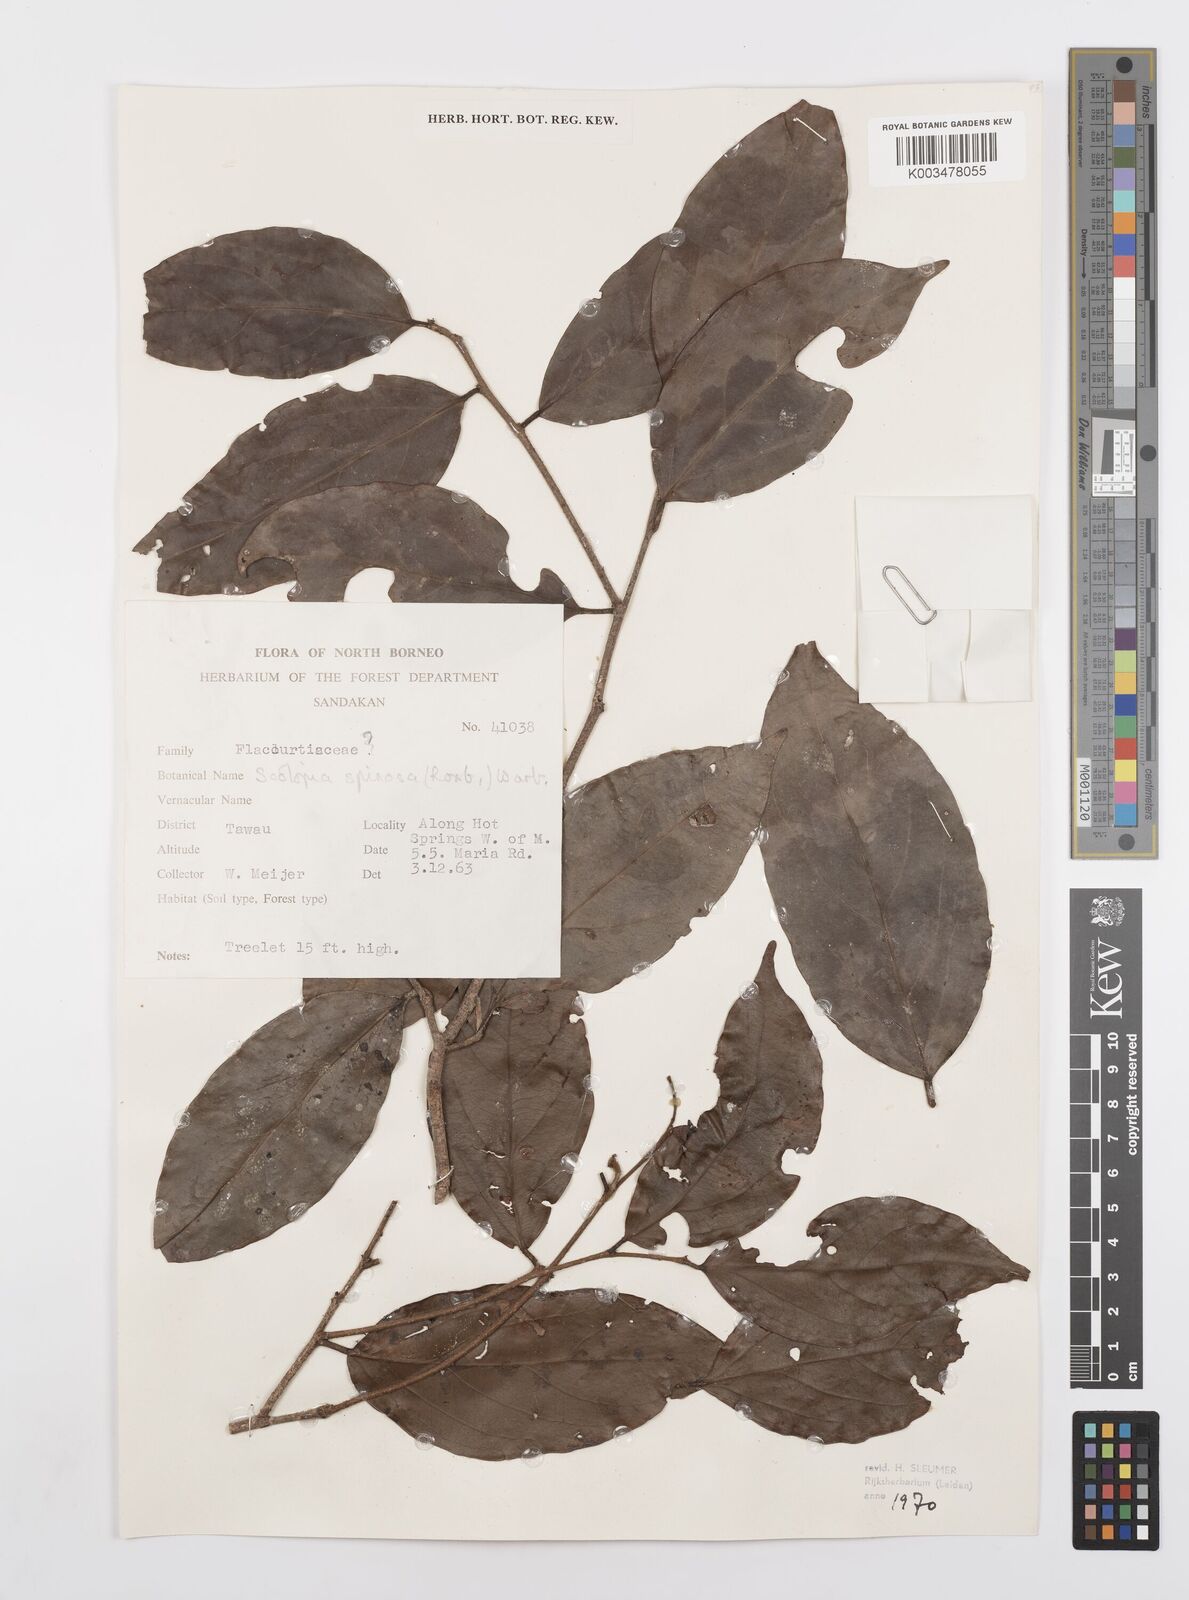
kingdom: Plantae
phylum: Tracheophyta
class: Magnoliopsida
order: Malpighiales
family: Salicaceae
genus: Scolopia
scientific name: Scolopia spinosa
